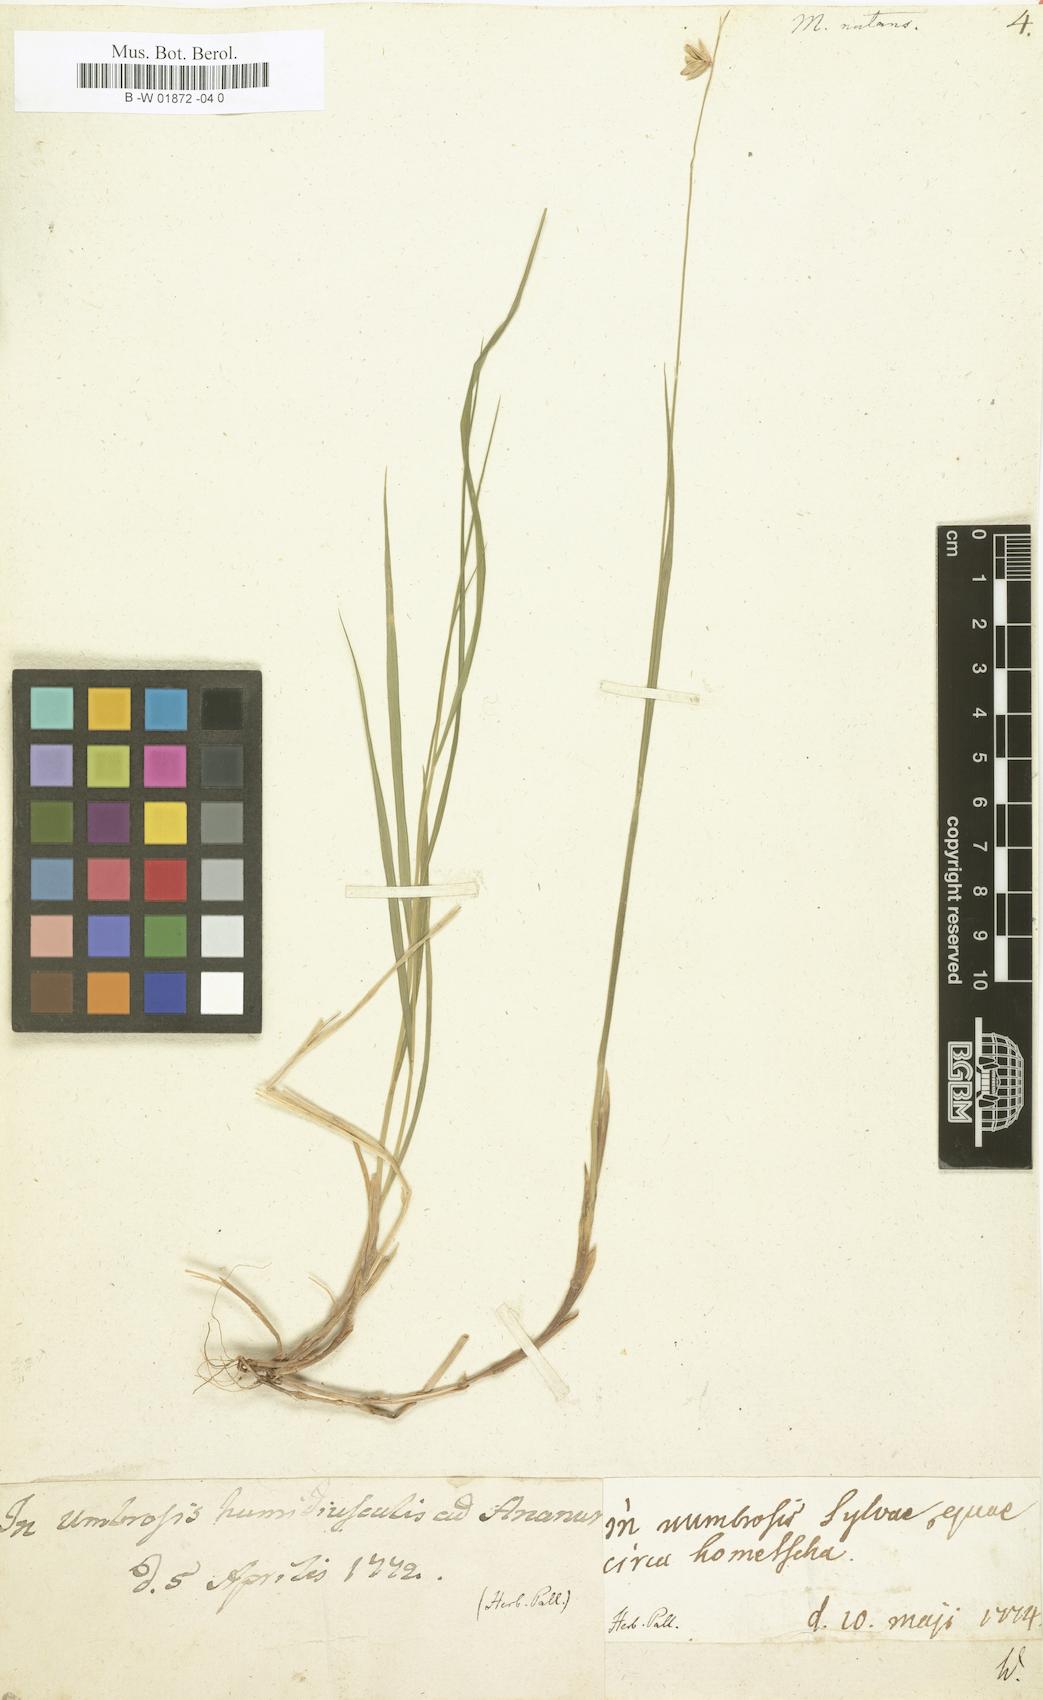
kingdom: Plantae
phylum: Tracheophyta
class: Liliopsida
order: Poales
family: Poaceae
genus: Melica
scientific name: Melica nutans
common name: Mountain melick
